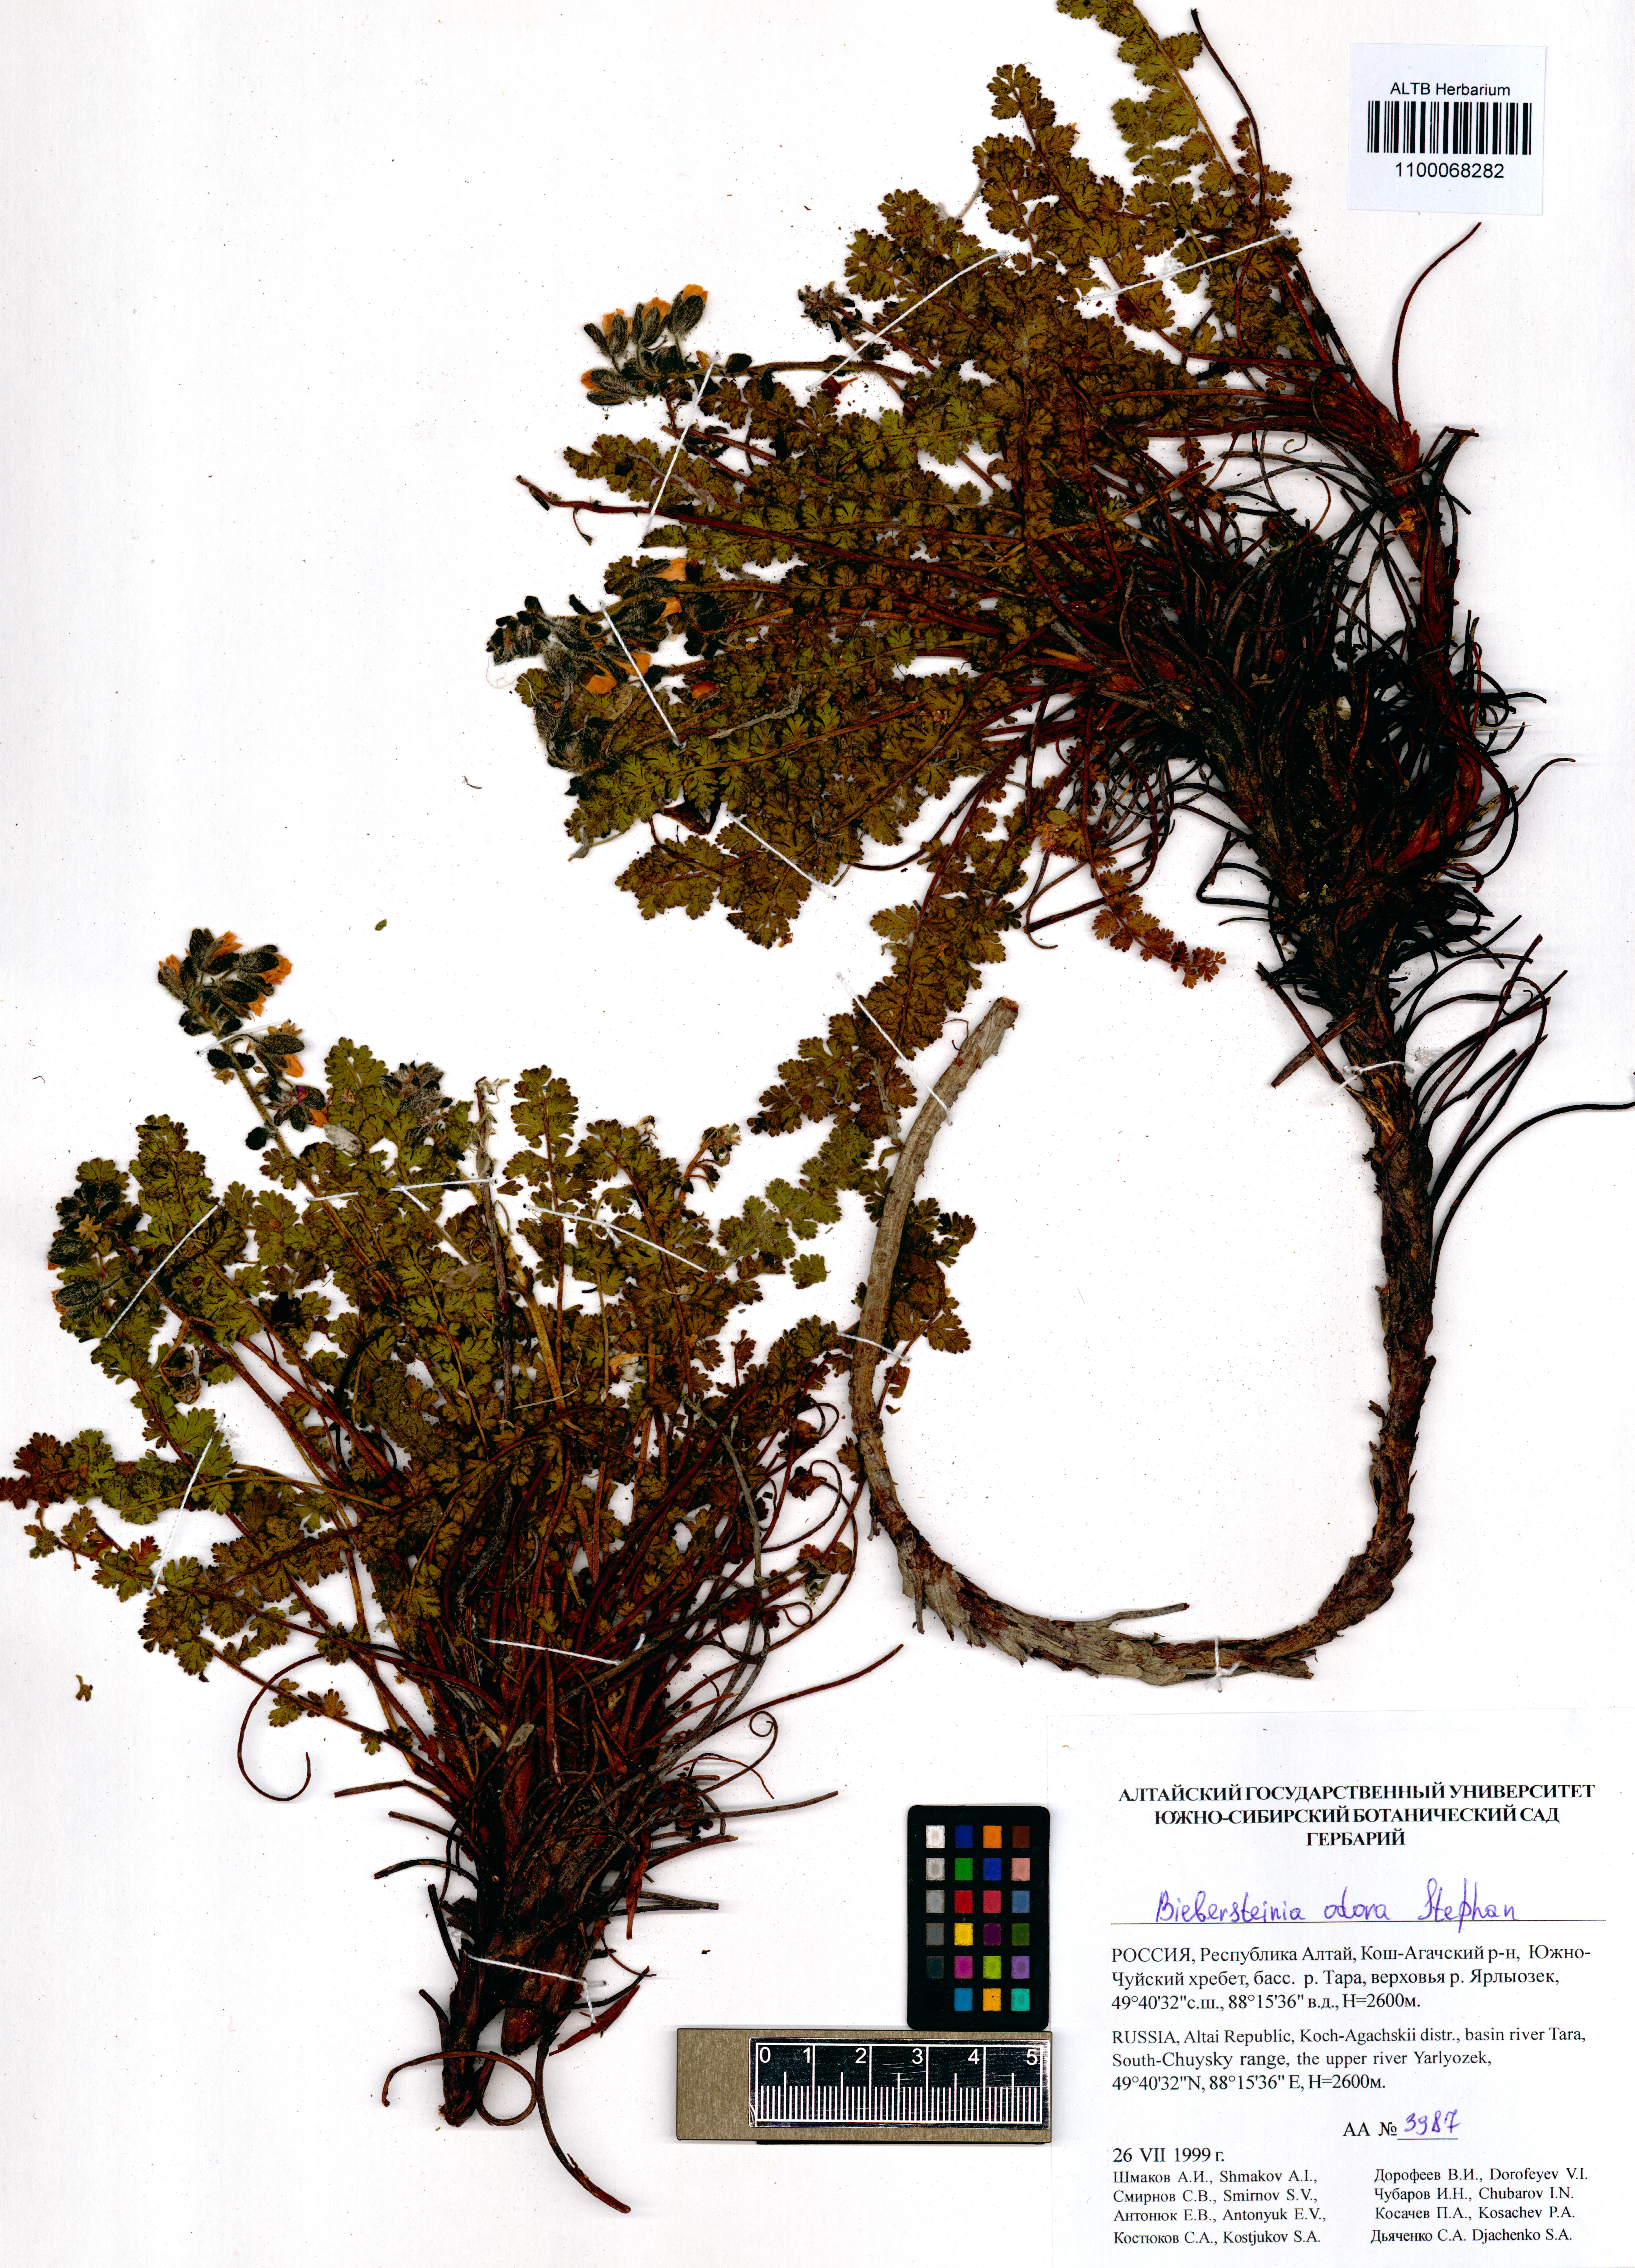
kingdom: Plantae
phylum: Tracheophyta
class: Magnoliopsida
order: Sapindales
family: Biebersteiniaceae
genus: Biebersteinia
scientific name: Biebersteinia odora
